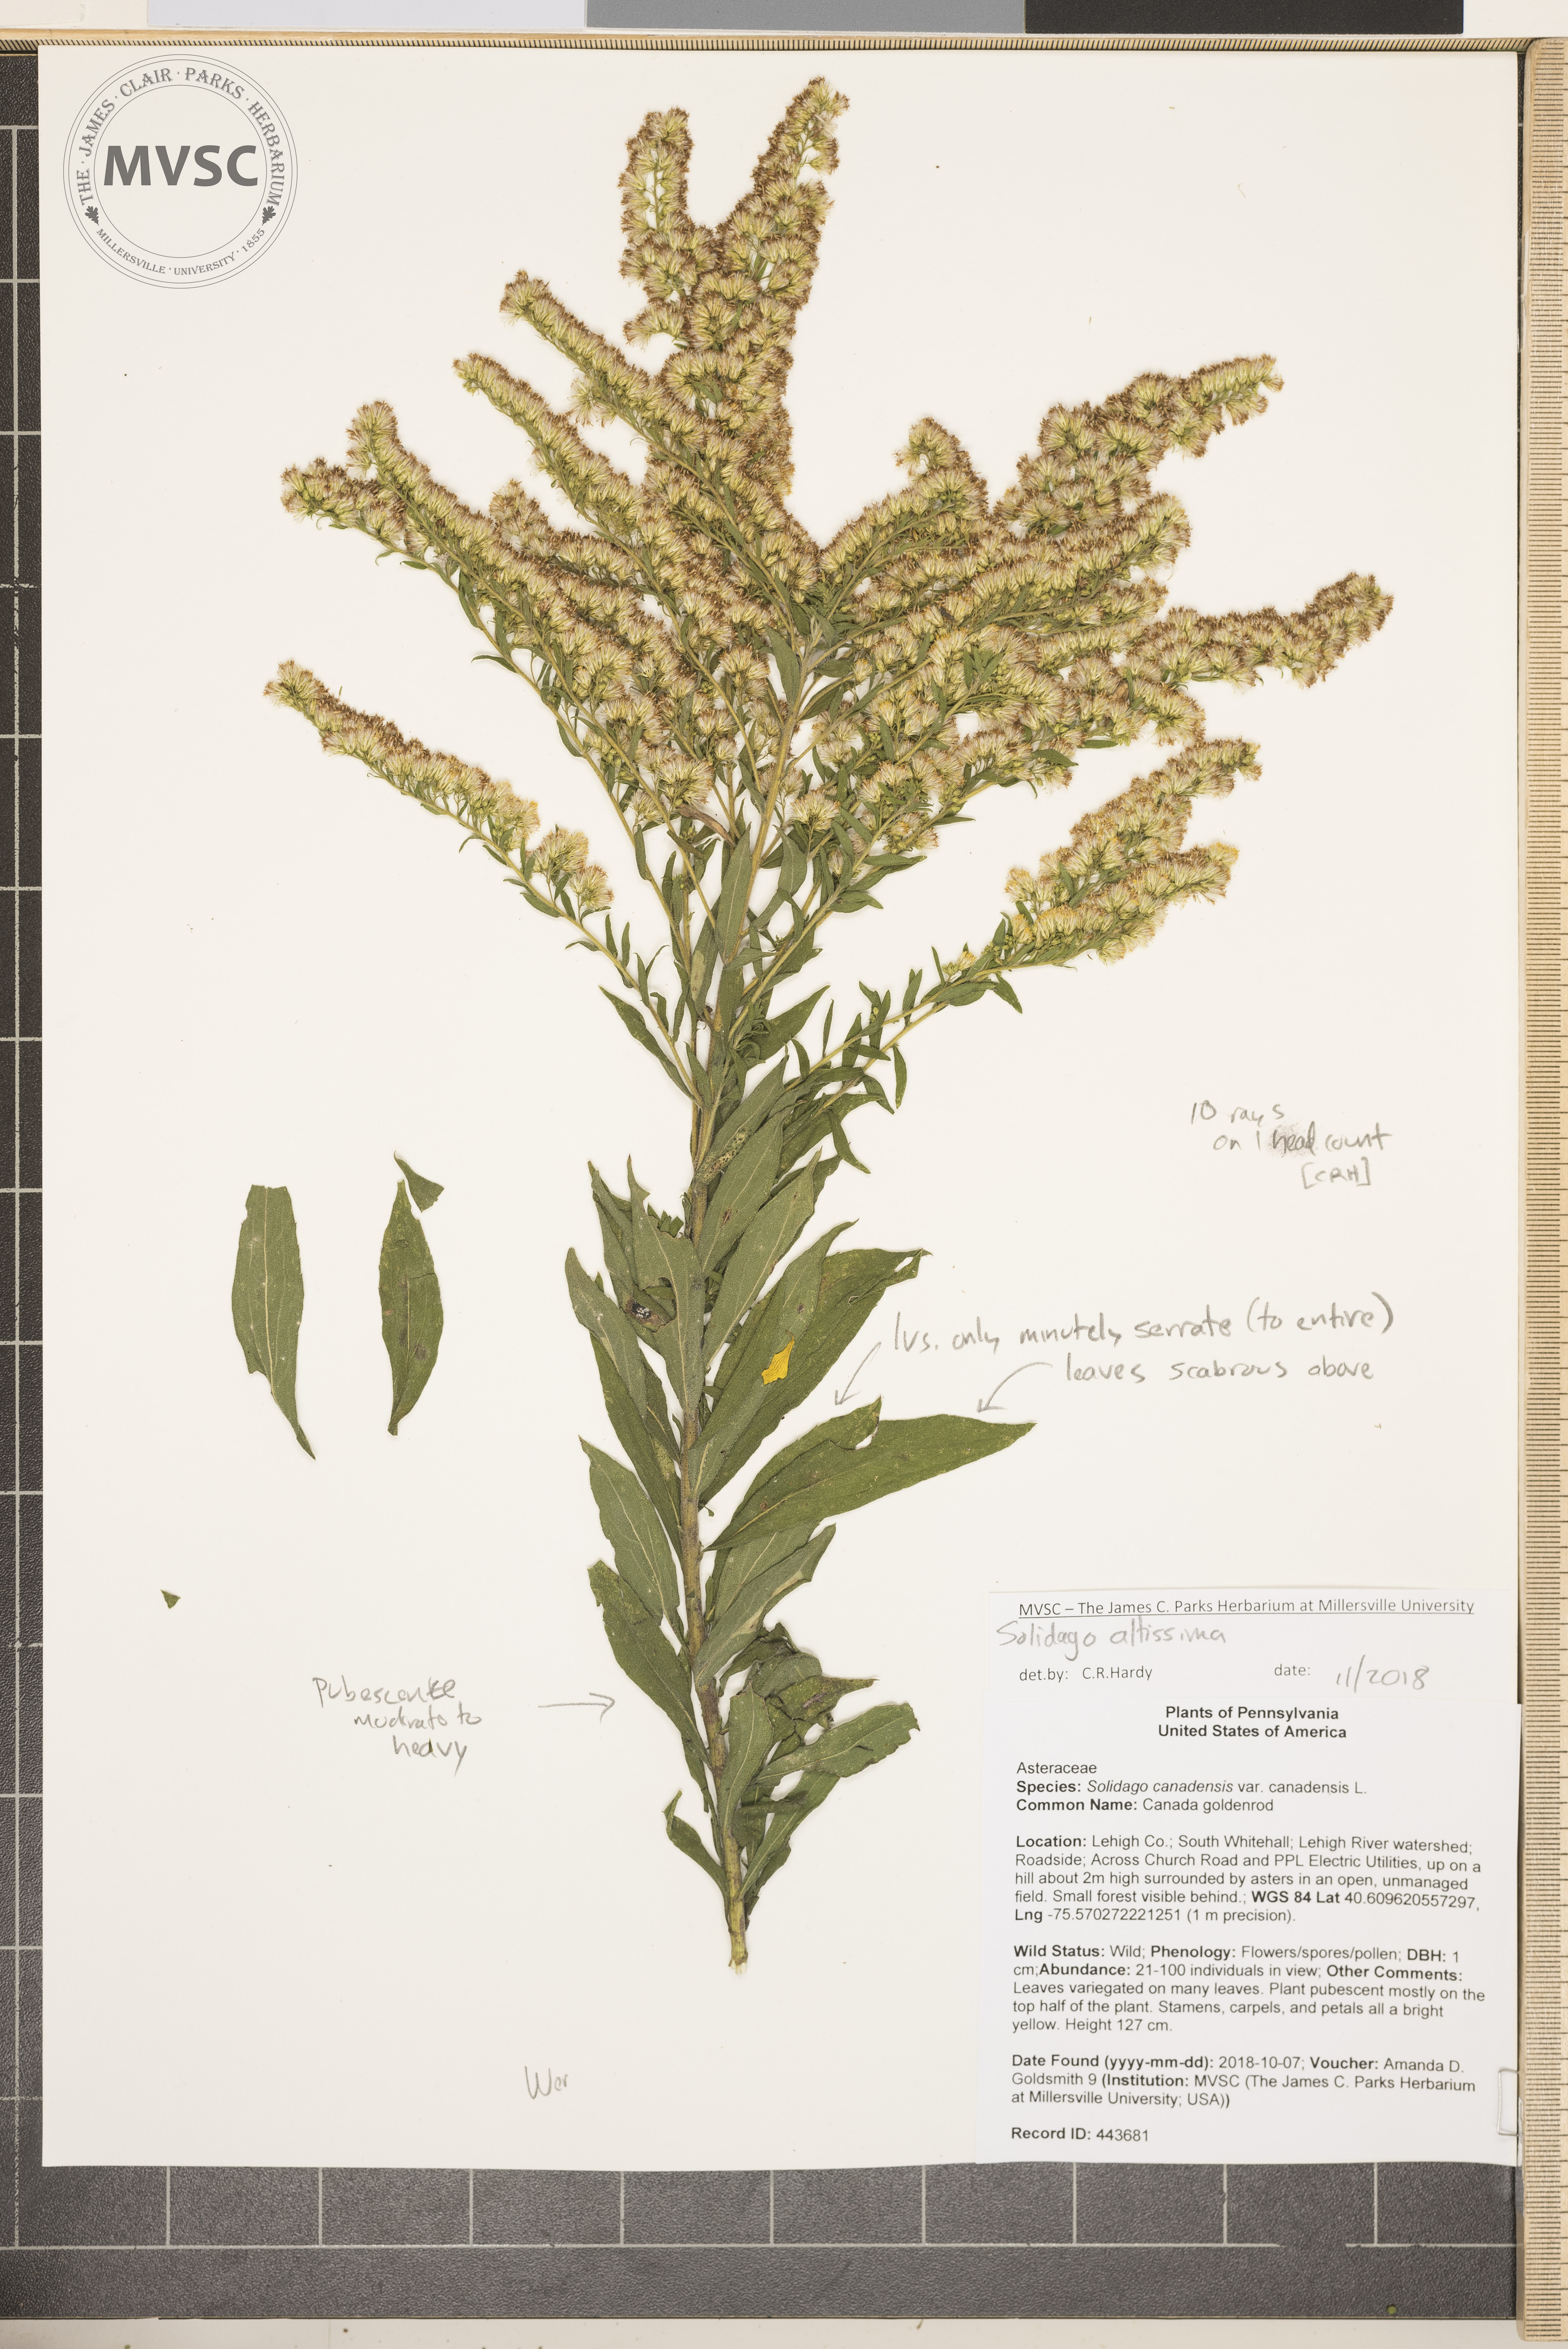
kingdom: Plantae
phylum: Tracheophyta
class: Magnoliopsida
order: Asterales
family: Asteraceae
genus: Solidago
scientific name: Solidago altissima
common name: Late goldenrod
